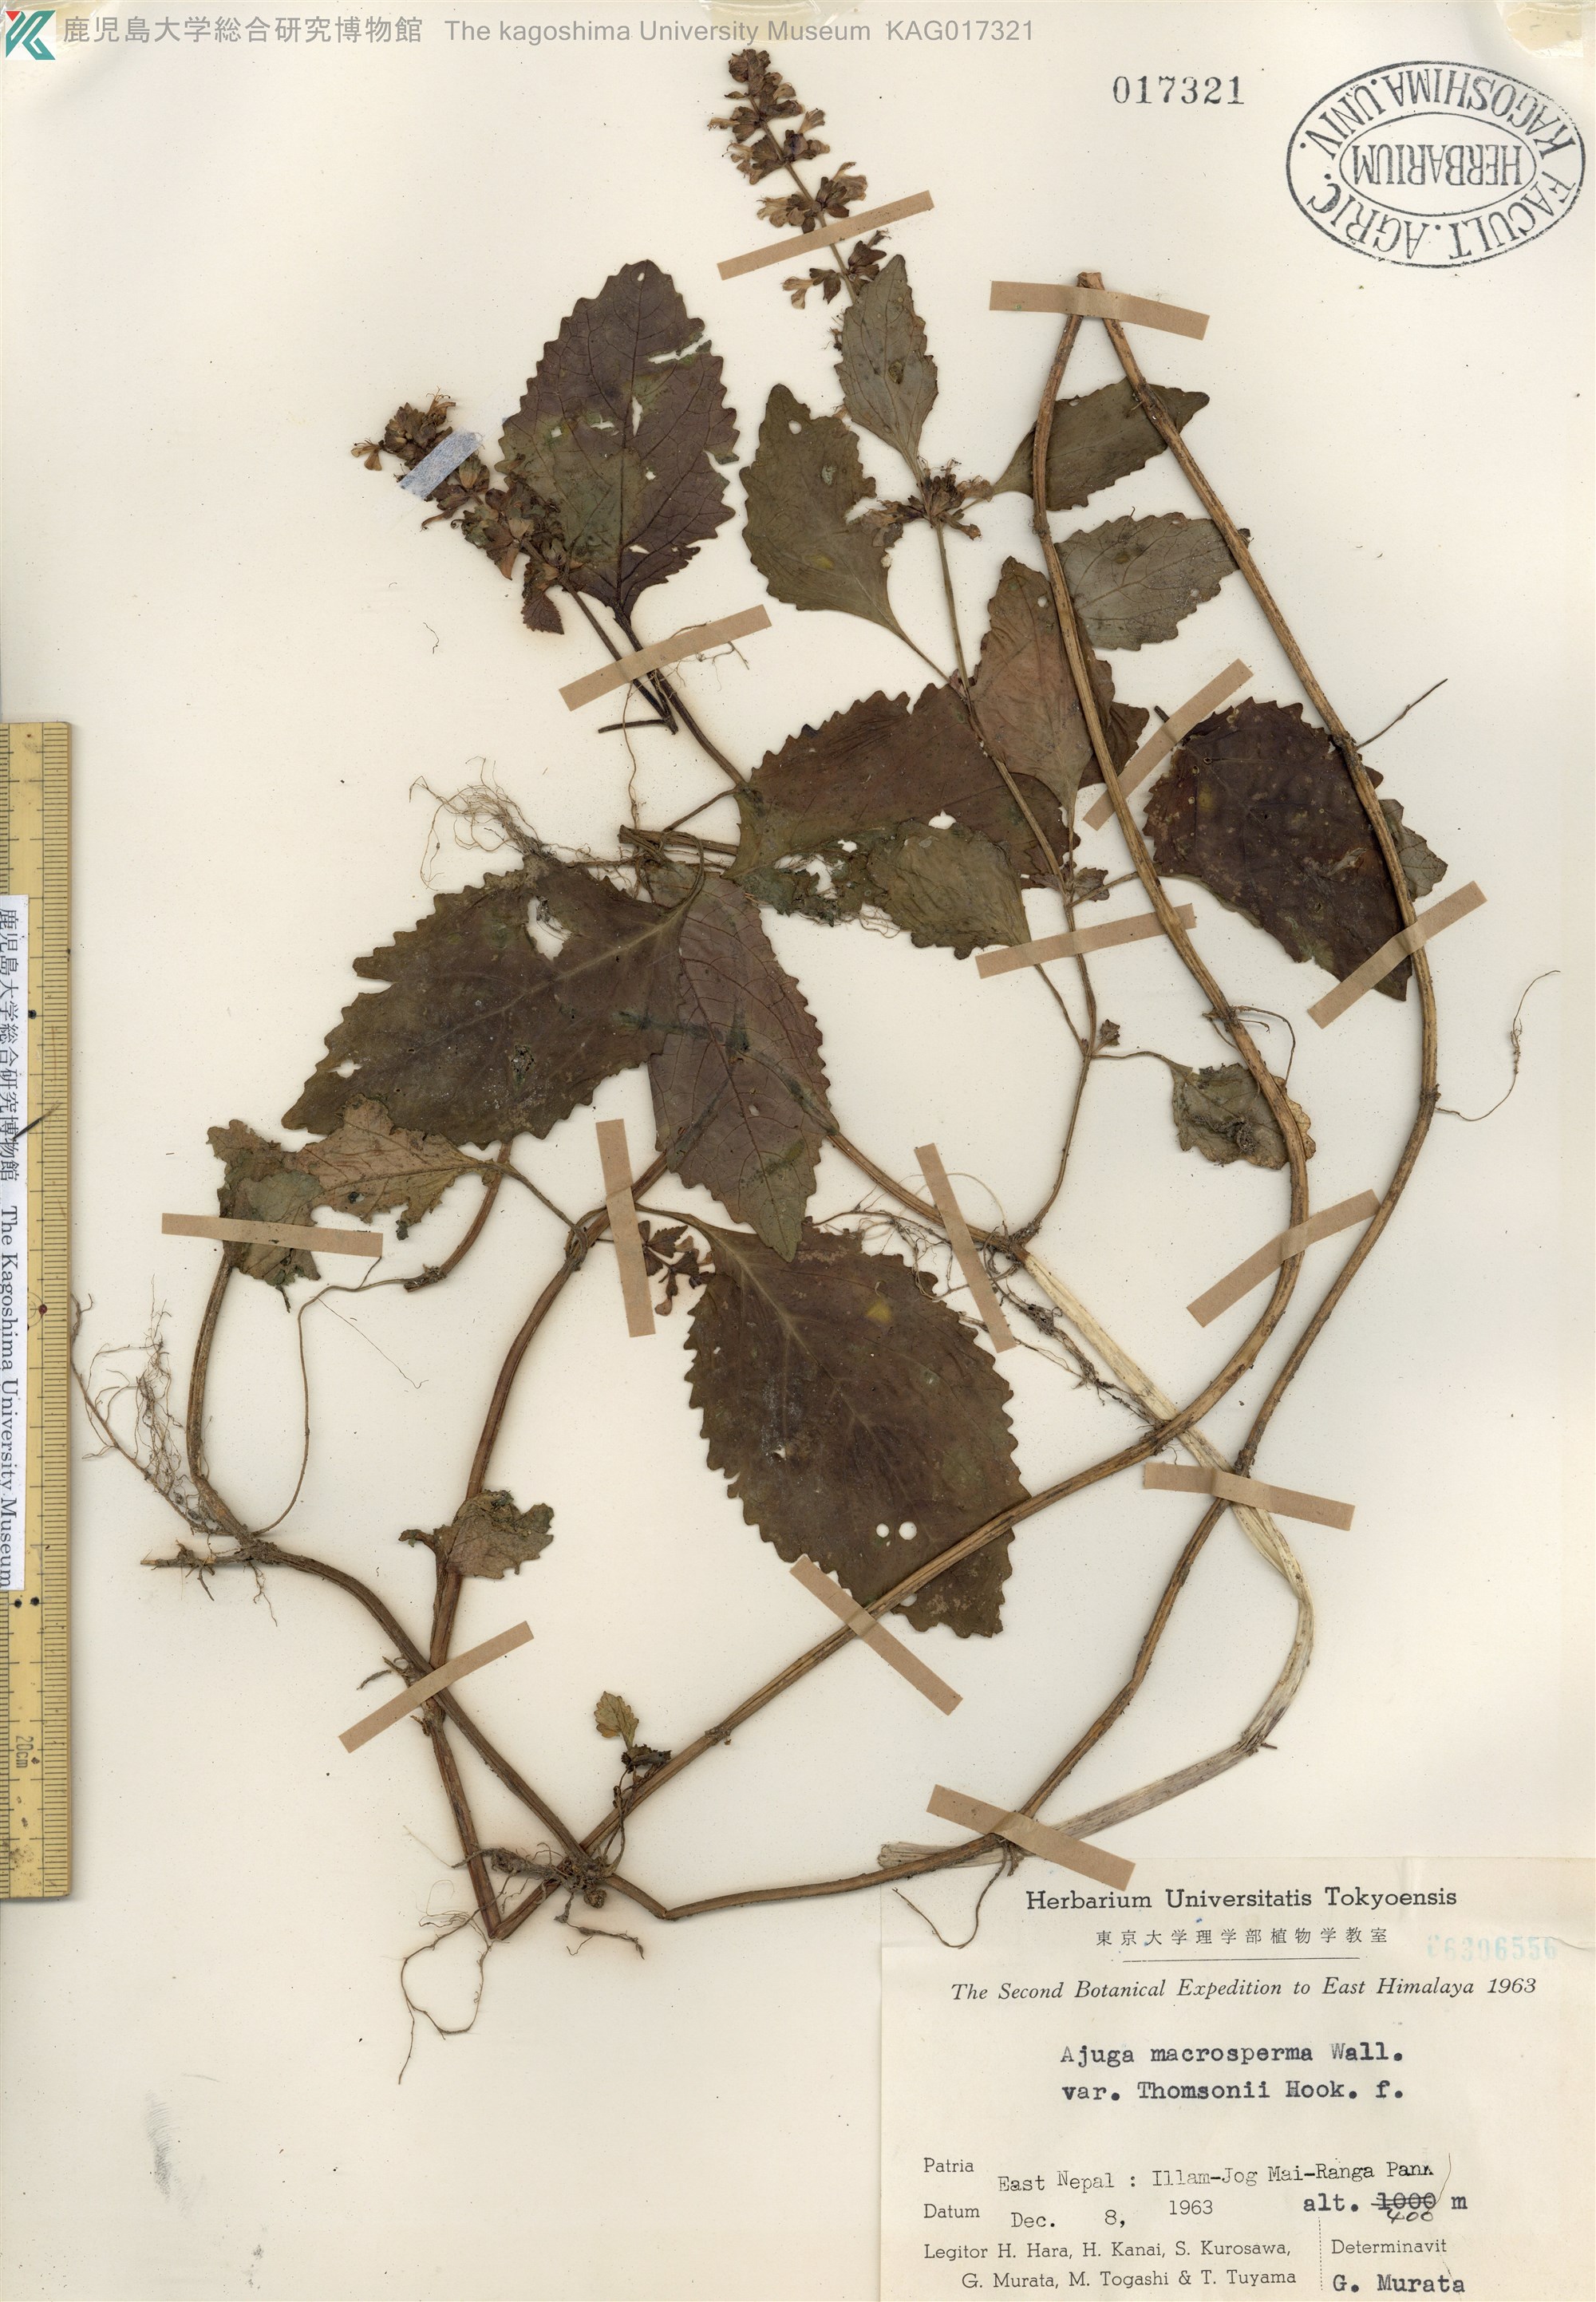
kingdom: Plantae
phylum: Tracheophyta
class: Magnoliopsida
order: Lamiales
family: Lamiaceae
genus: Ajuga
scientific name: Ajuga macrosperma
